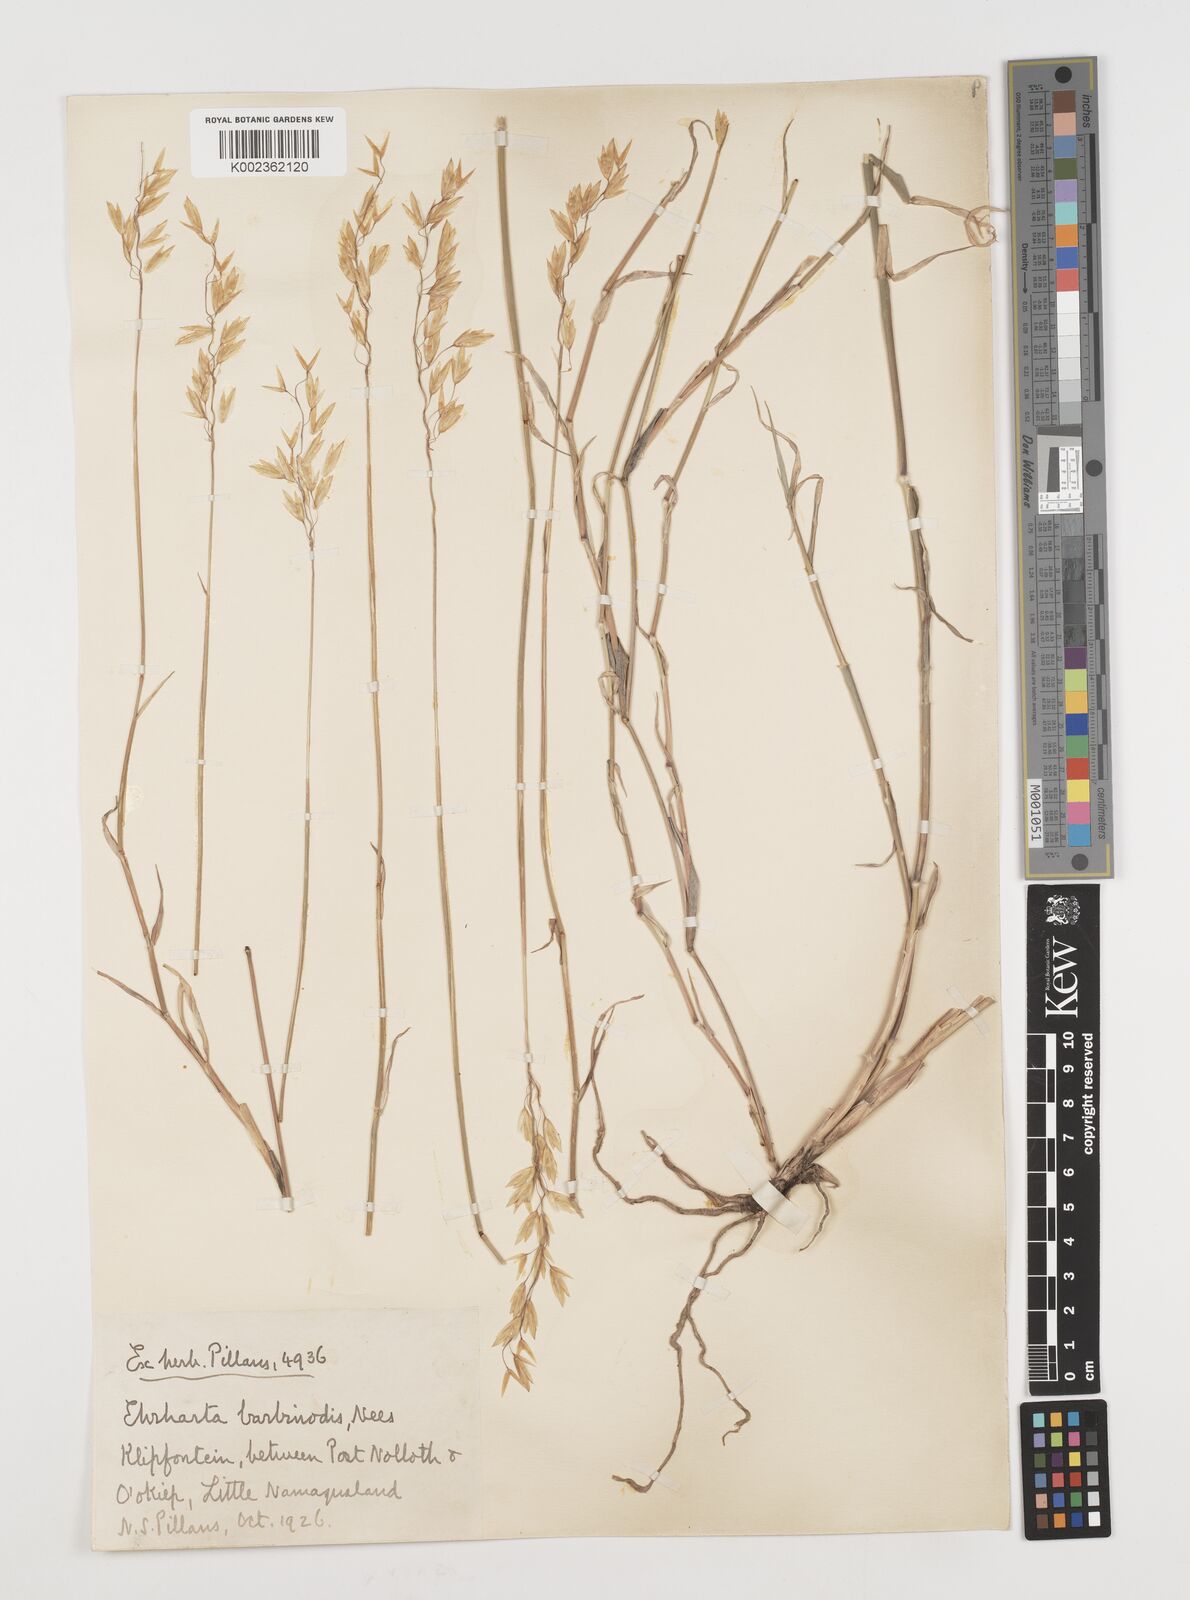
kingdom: Plantae
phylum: Tracheophyta
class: Liliopsida
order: Poales
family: Poaceae
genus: Ehrharta
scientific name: Ehrharta barbinodis
